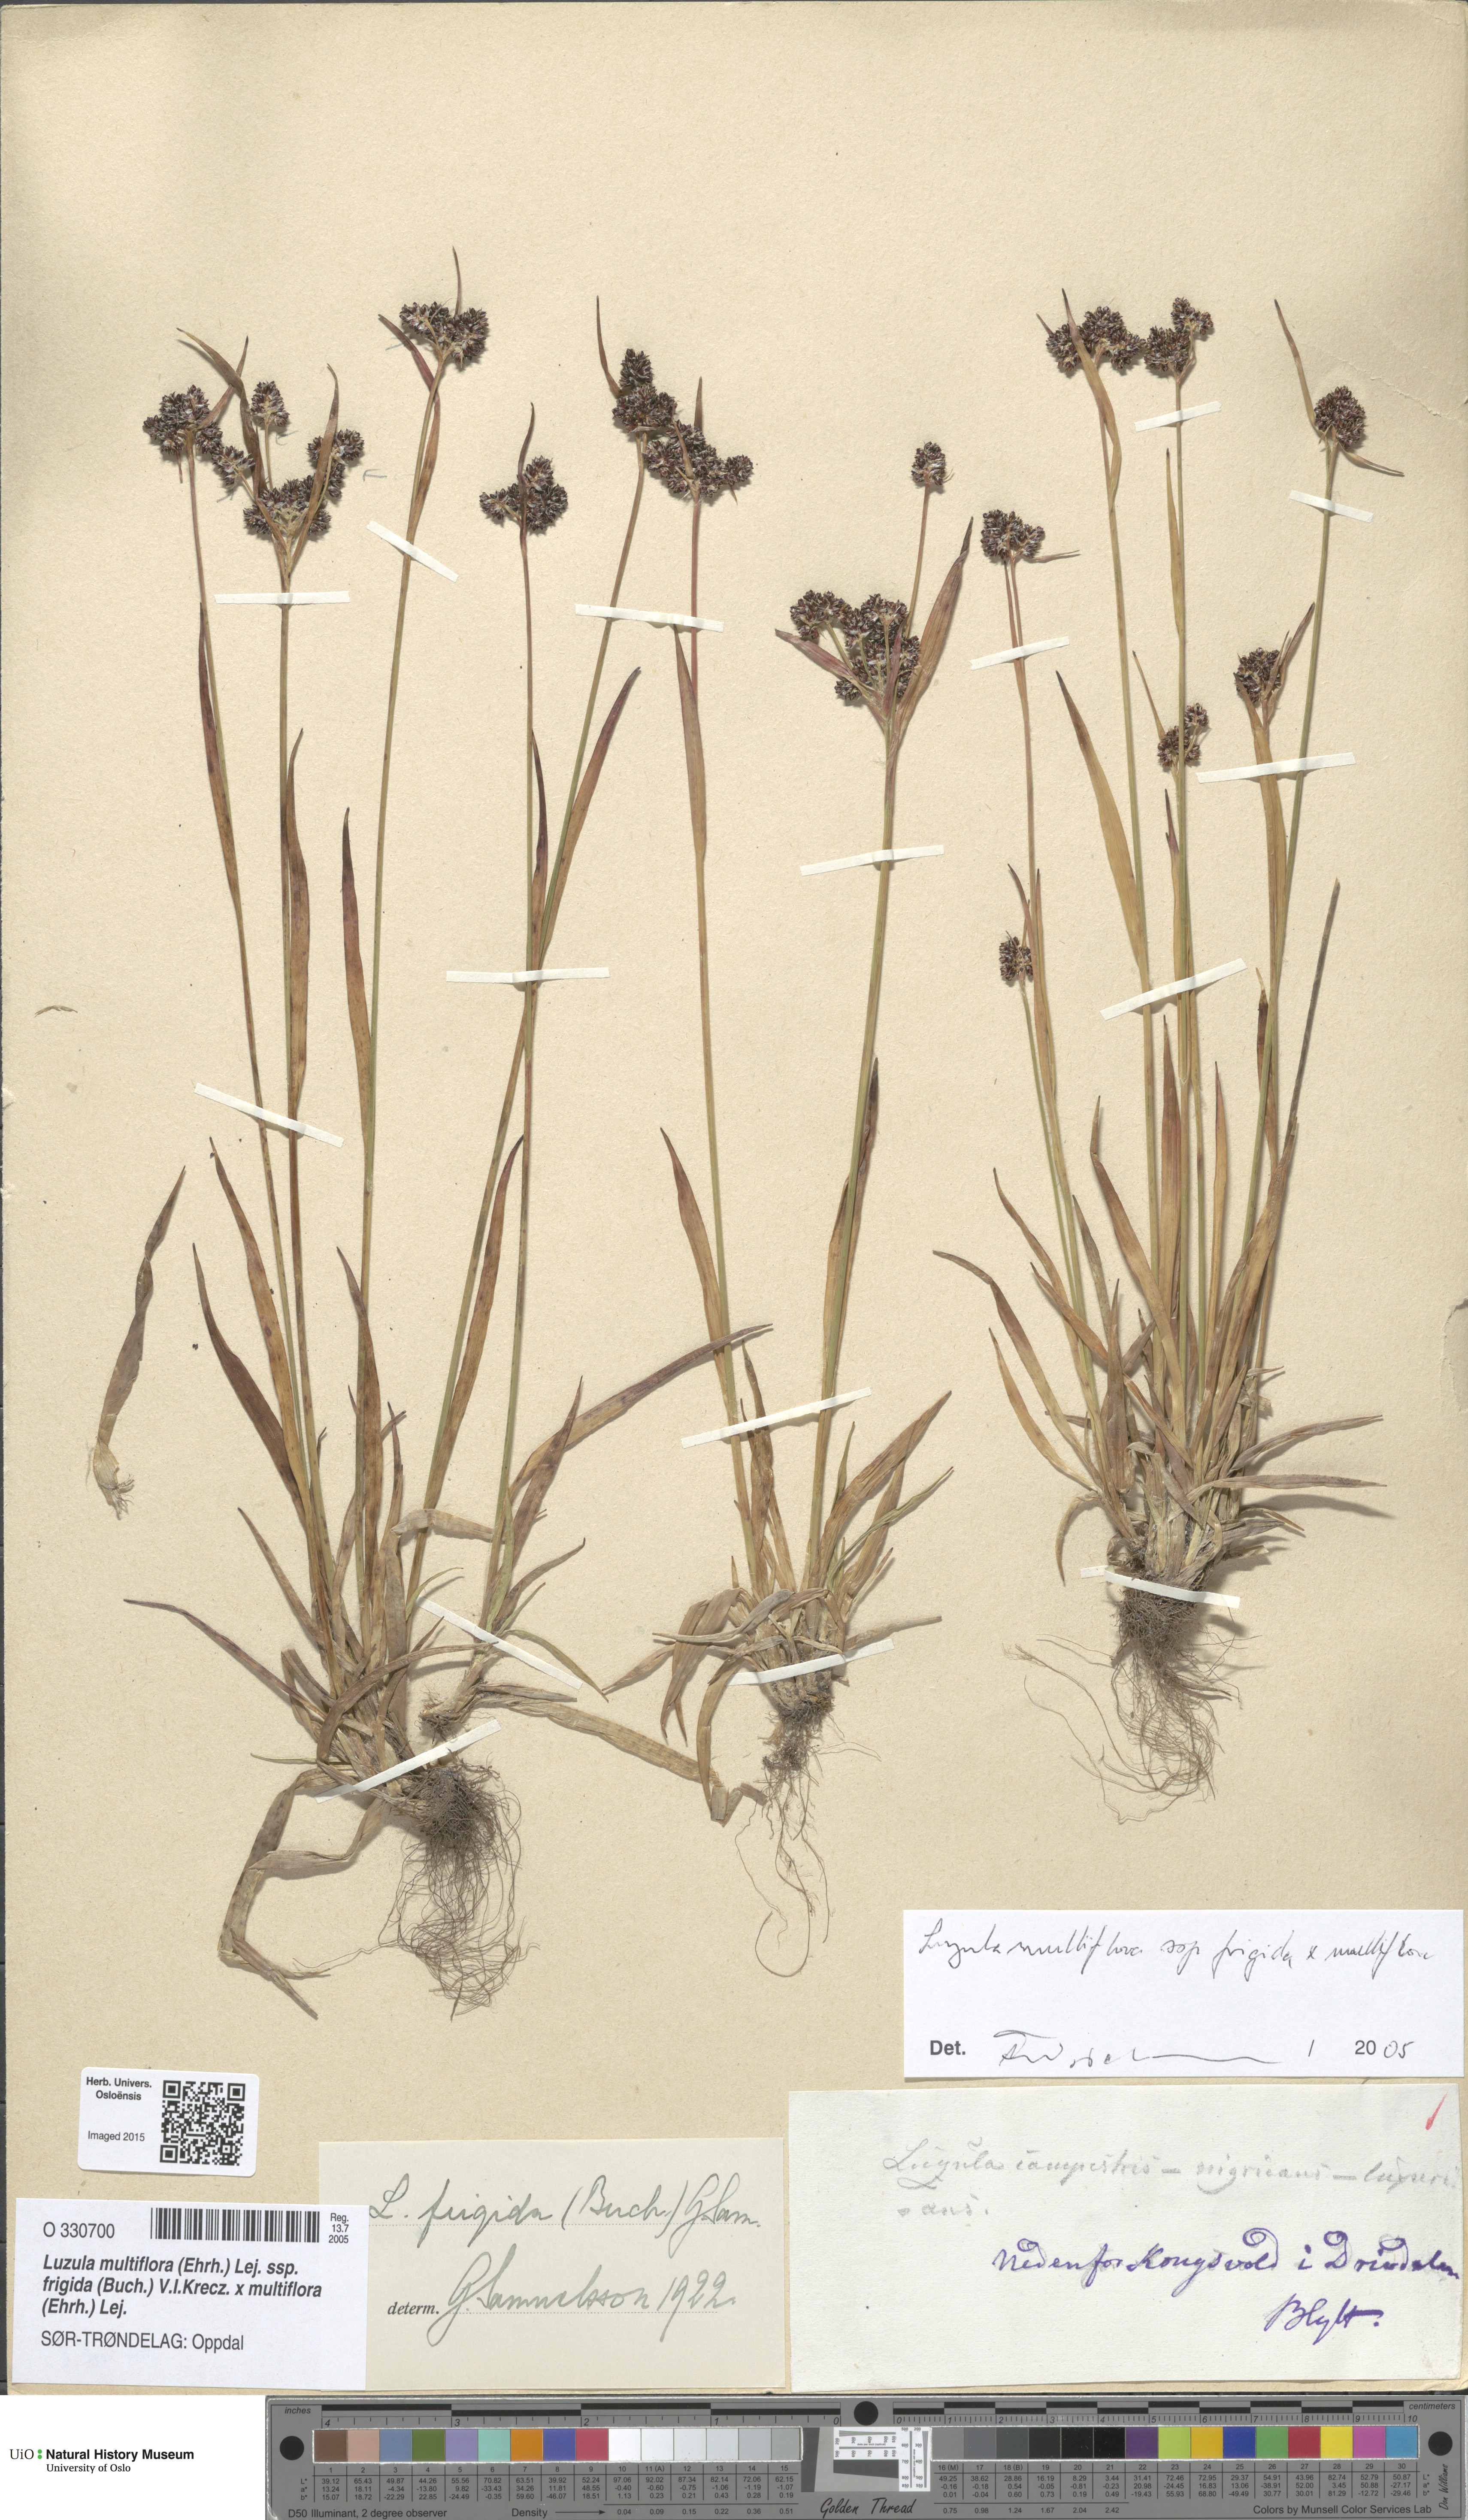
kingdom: Plantae
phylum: Tracheophyta
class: Liliopsida
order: Poales
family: Juncaceae
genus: Luzula
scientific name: Luzula
